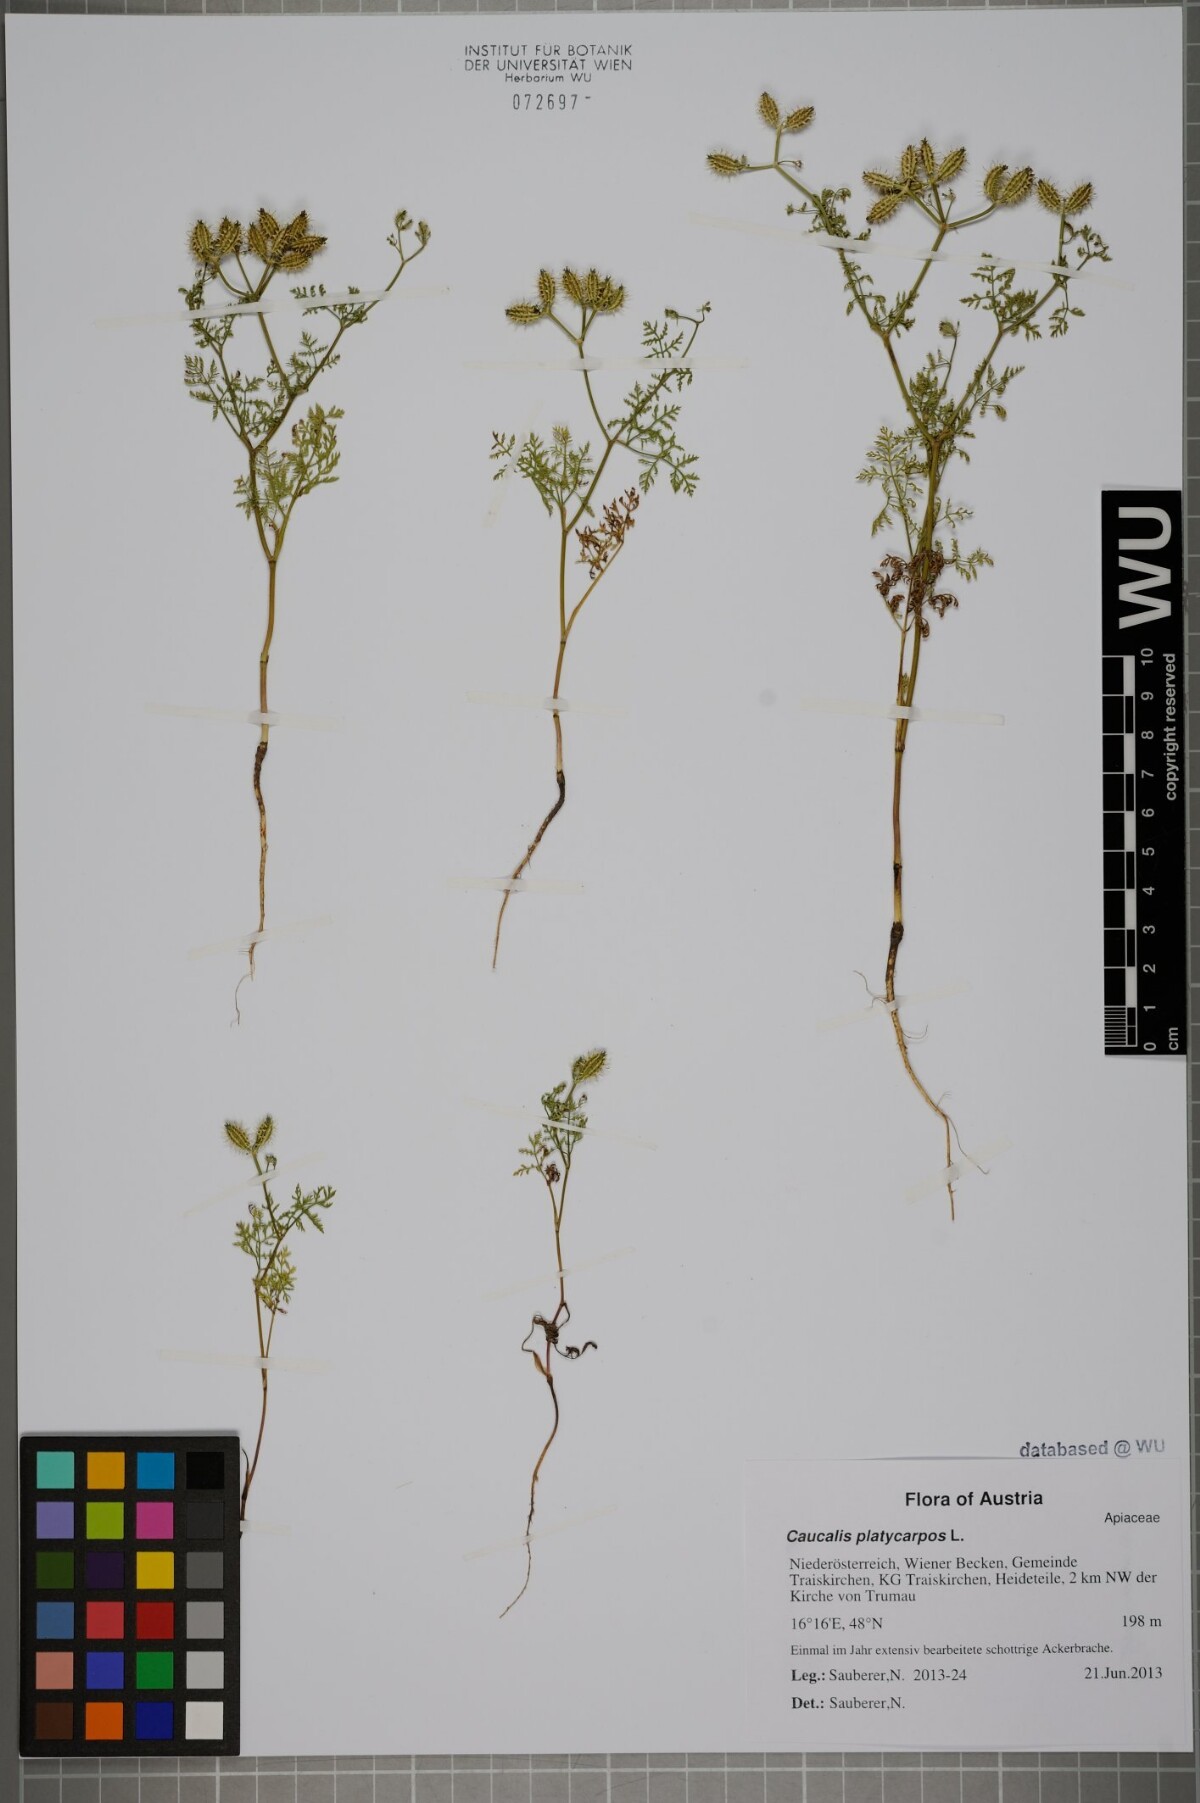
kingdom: Plantae
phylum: Tracheophyta
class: Magnoliopsida
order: Apiales
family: Apiaceae
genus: Caucalis
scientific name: Caucalis platycarpos
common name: Small bur-parsley
